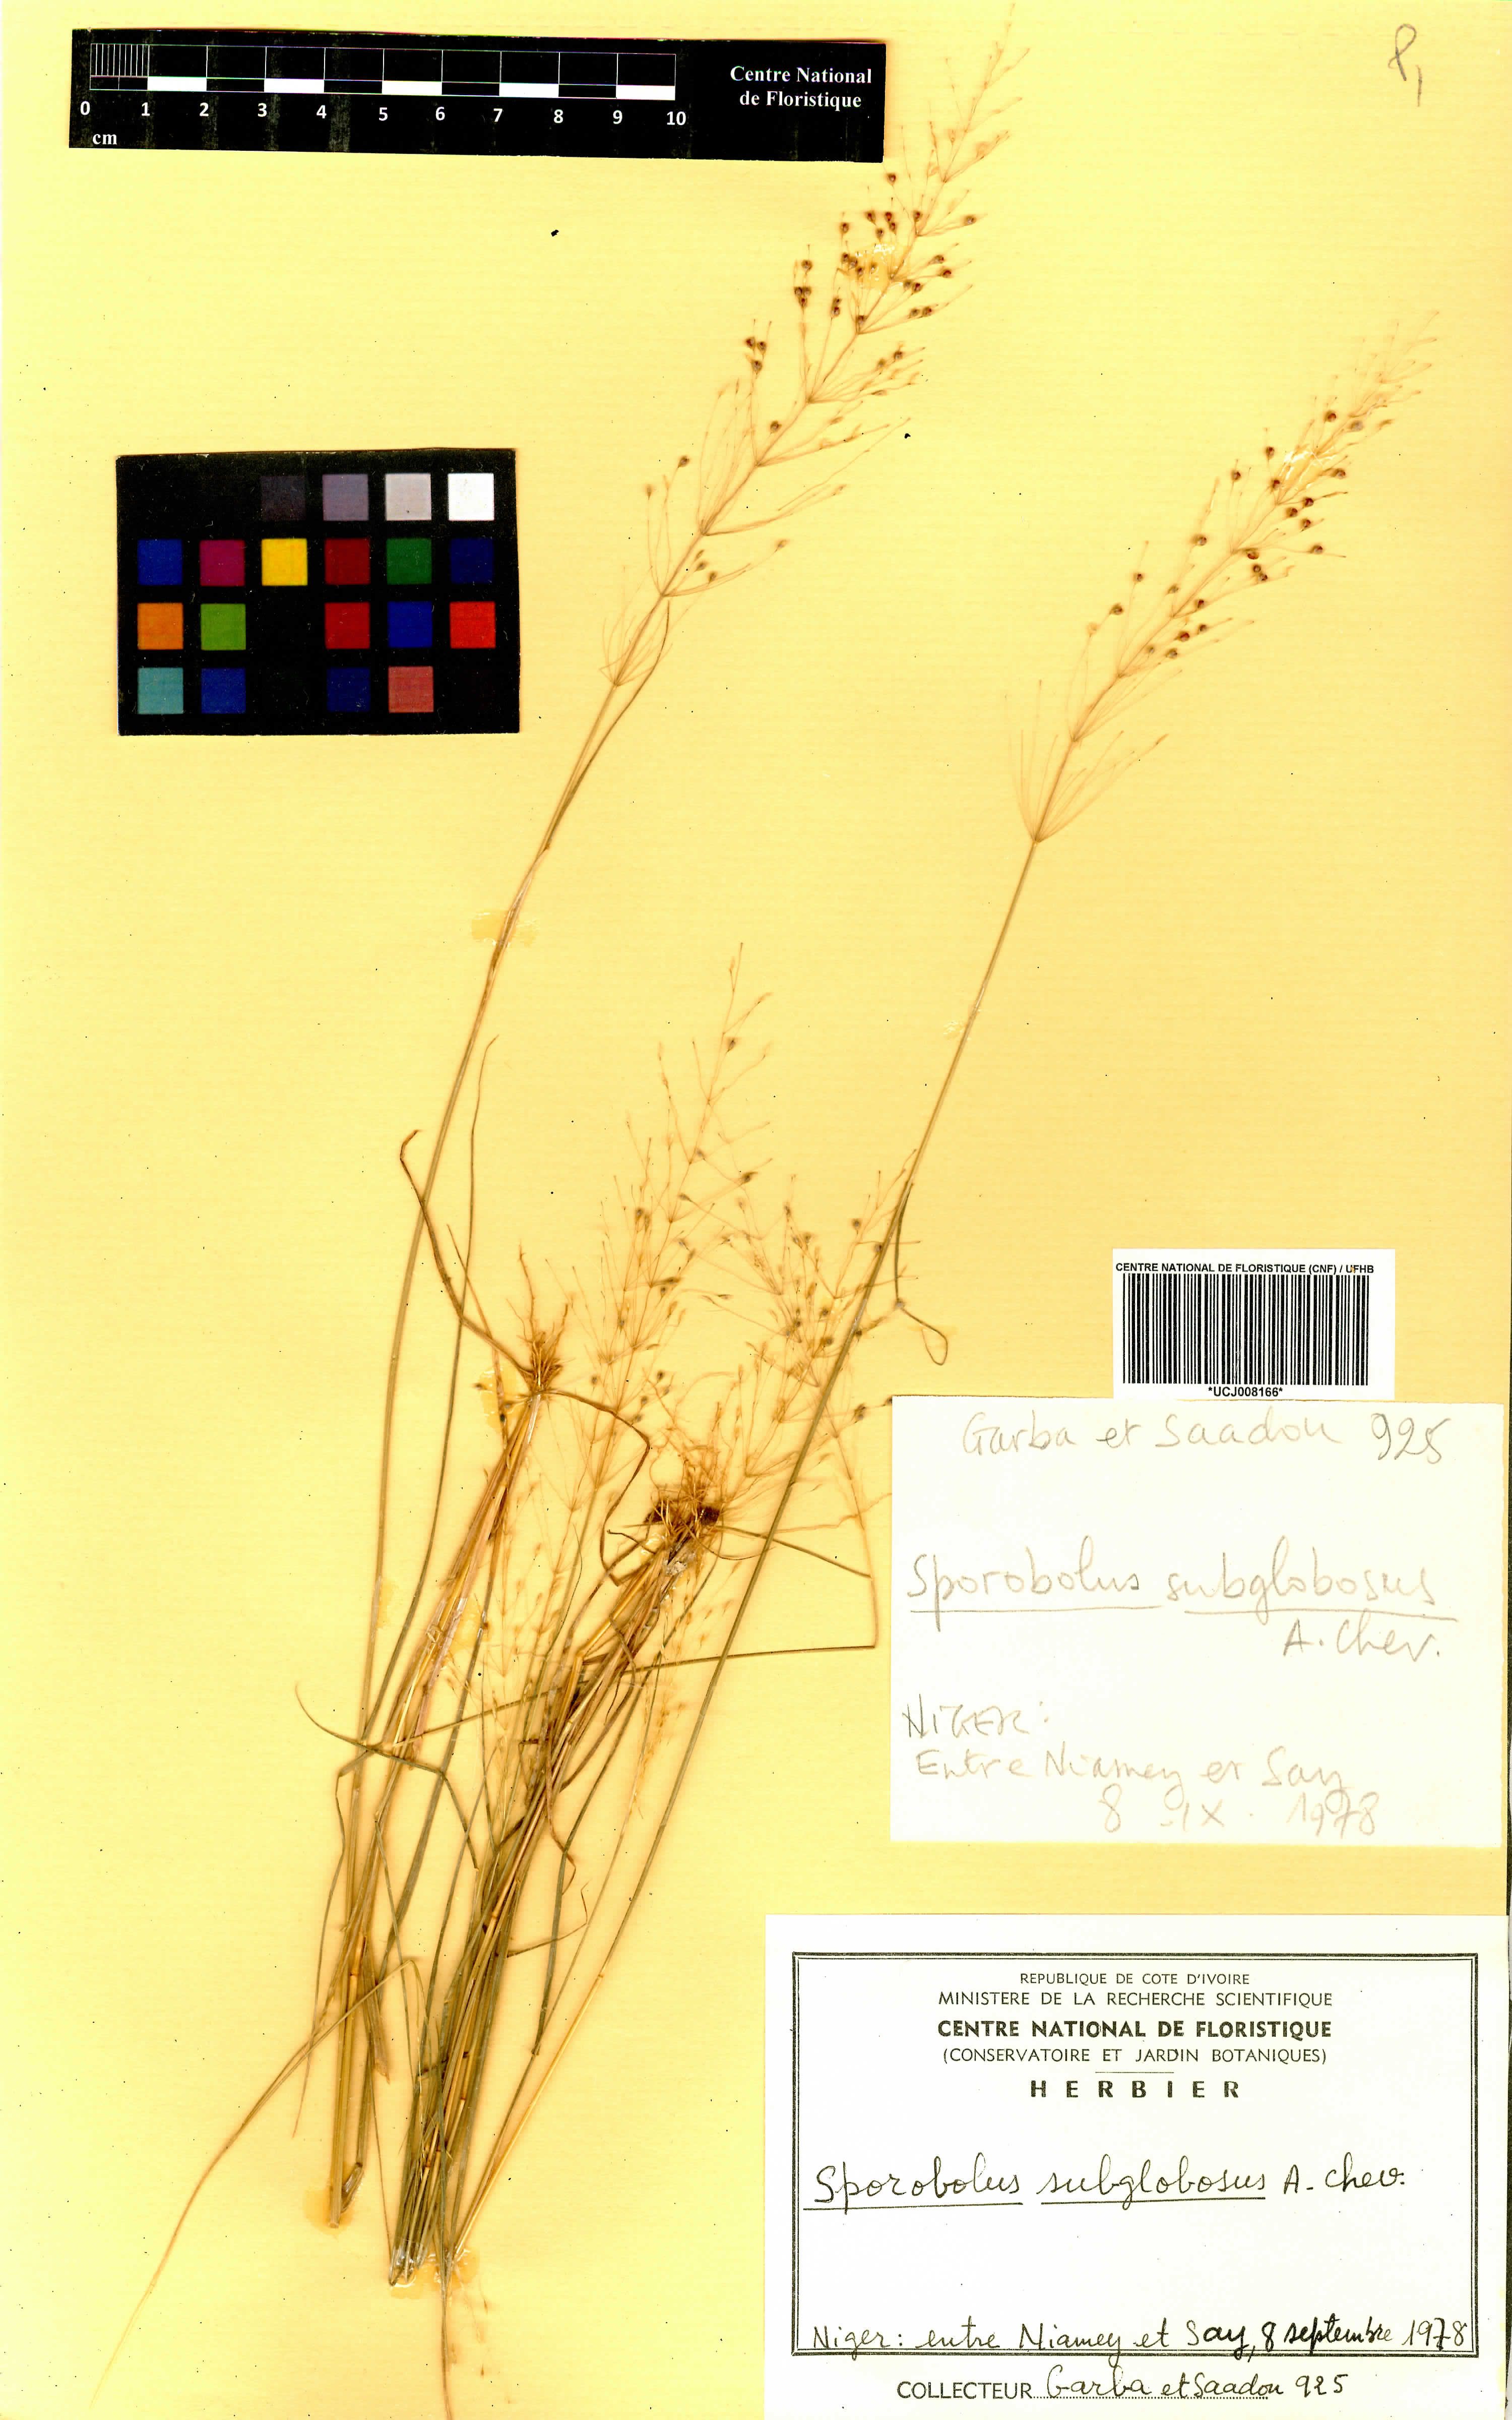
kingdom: Plantae
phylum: Tracheophyta
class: Liliopsida
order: Poales
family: Poaceae
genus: Sporobolus
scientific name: Sporobolus subglobosus
